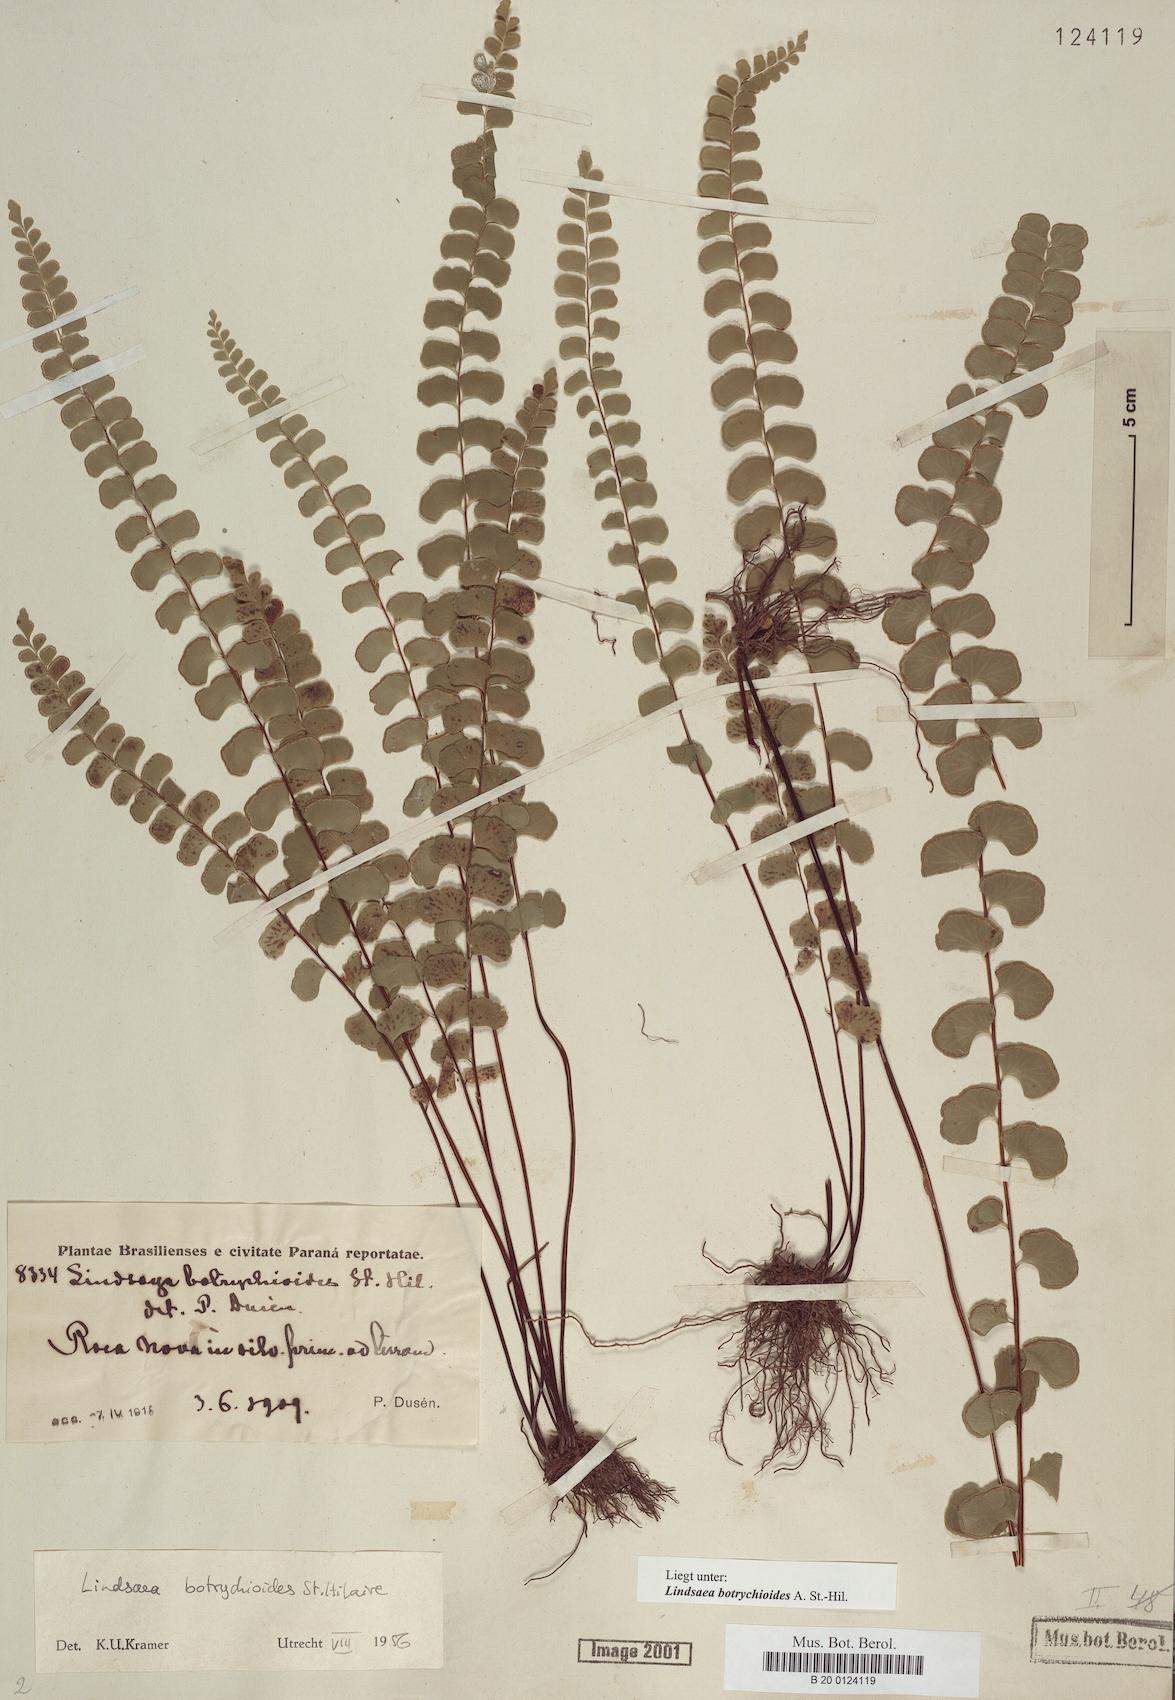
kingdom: Plantae
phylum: Tracheophyta
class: Polypodiopsida
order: Polypodiales
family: Lindsaeaceae
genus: Lindsaea
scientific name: Lindsaea botrychioides
